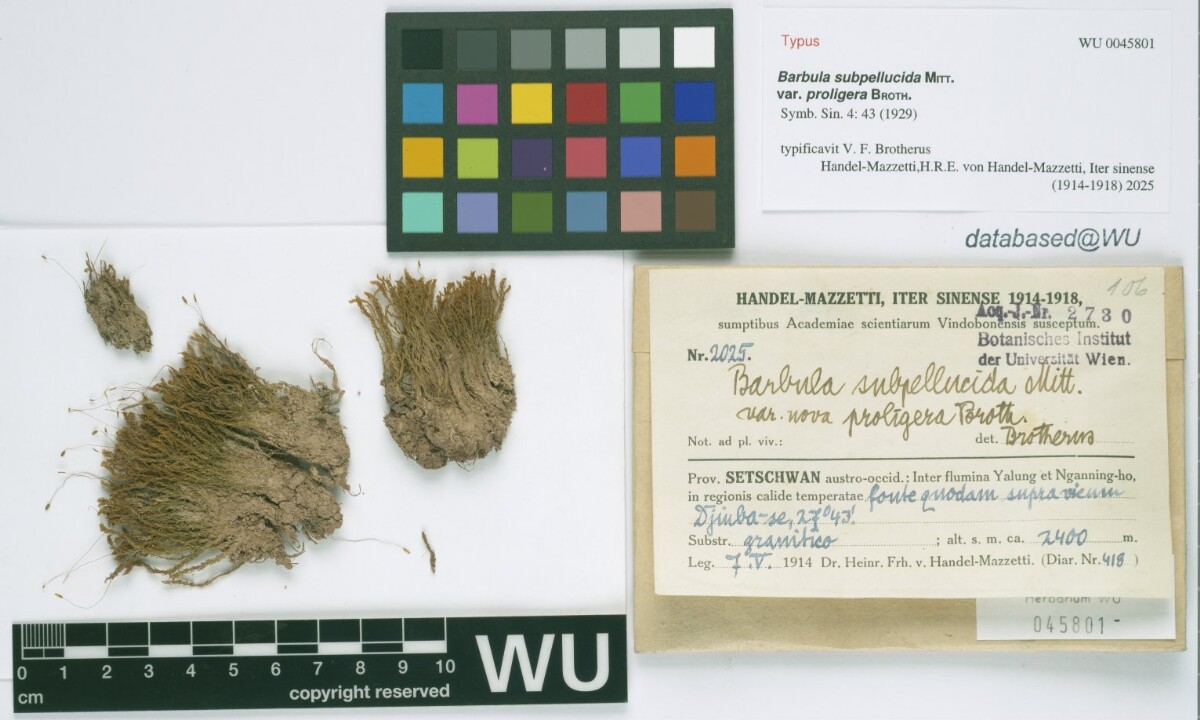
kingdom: Plantae
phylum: Bryophyta
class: Bryopsida
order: Pottiales
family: Pottiaceae
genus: Hydrogonium
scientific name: Hydrogonium bolleanum
